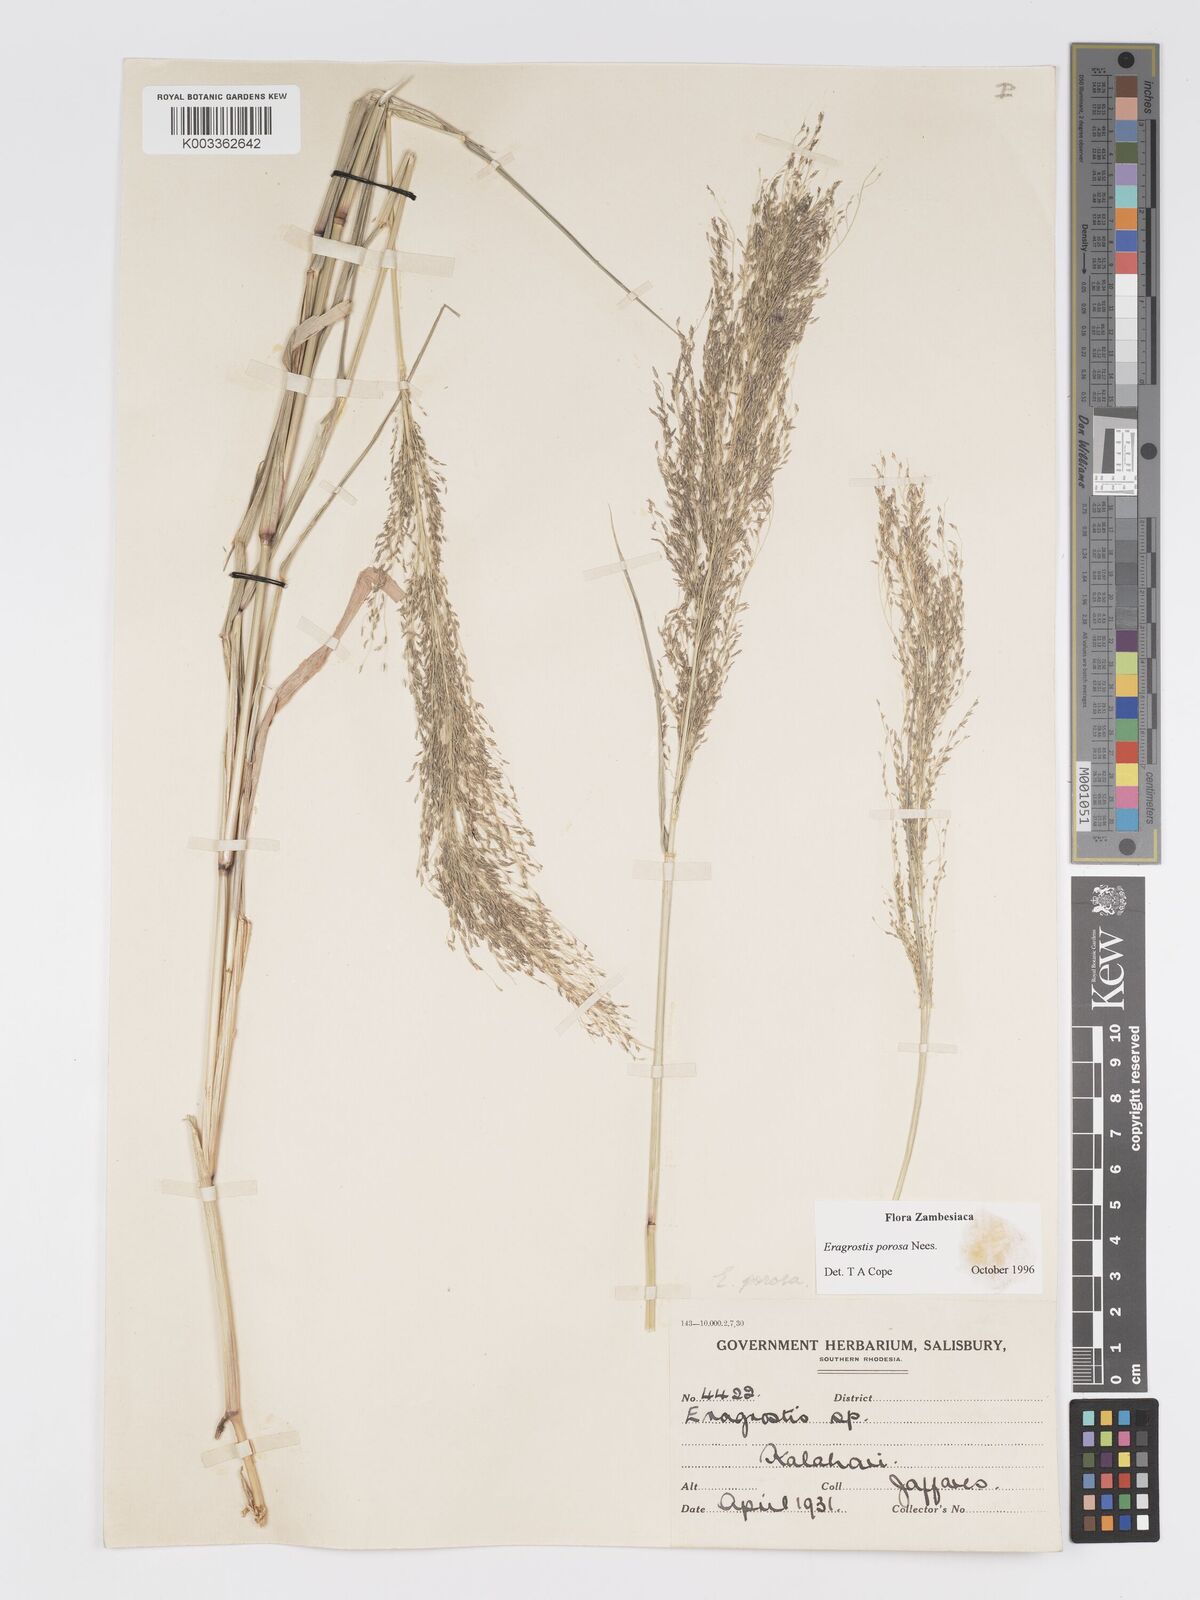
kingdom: Plantae
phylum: Tracheophyta
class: Liliopsida
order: Poales
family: Poaceae
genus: Eragrostis
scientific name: Eragrostis porosa
